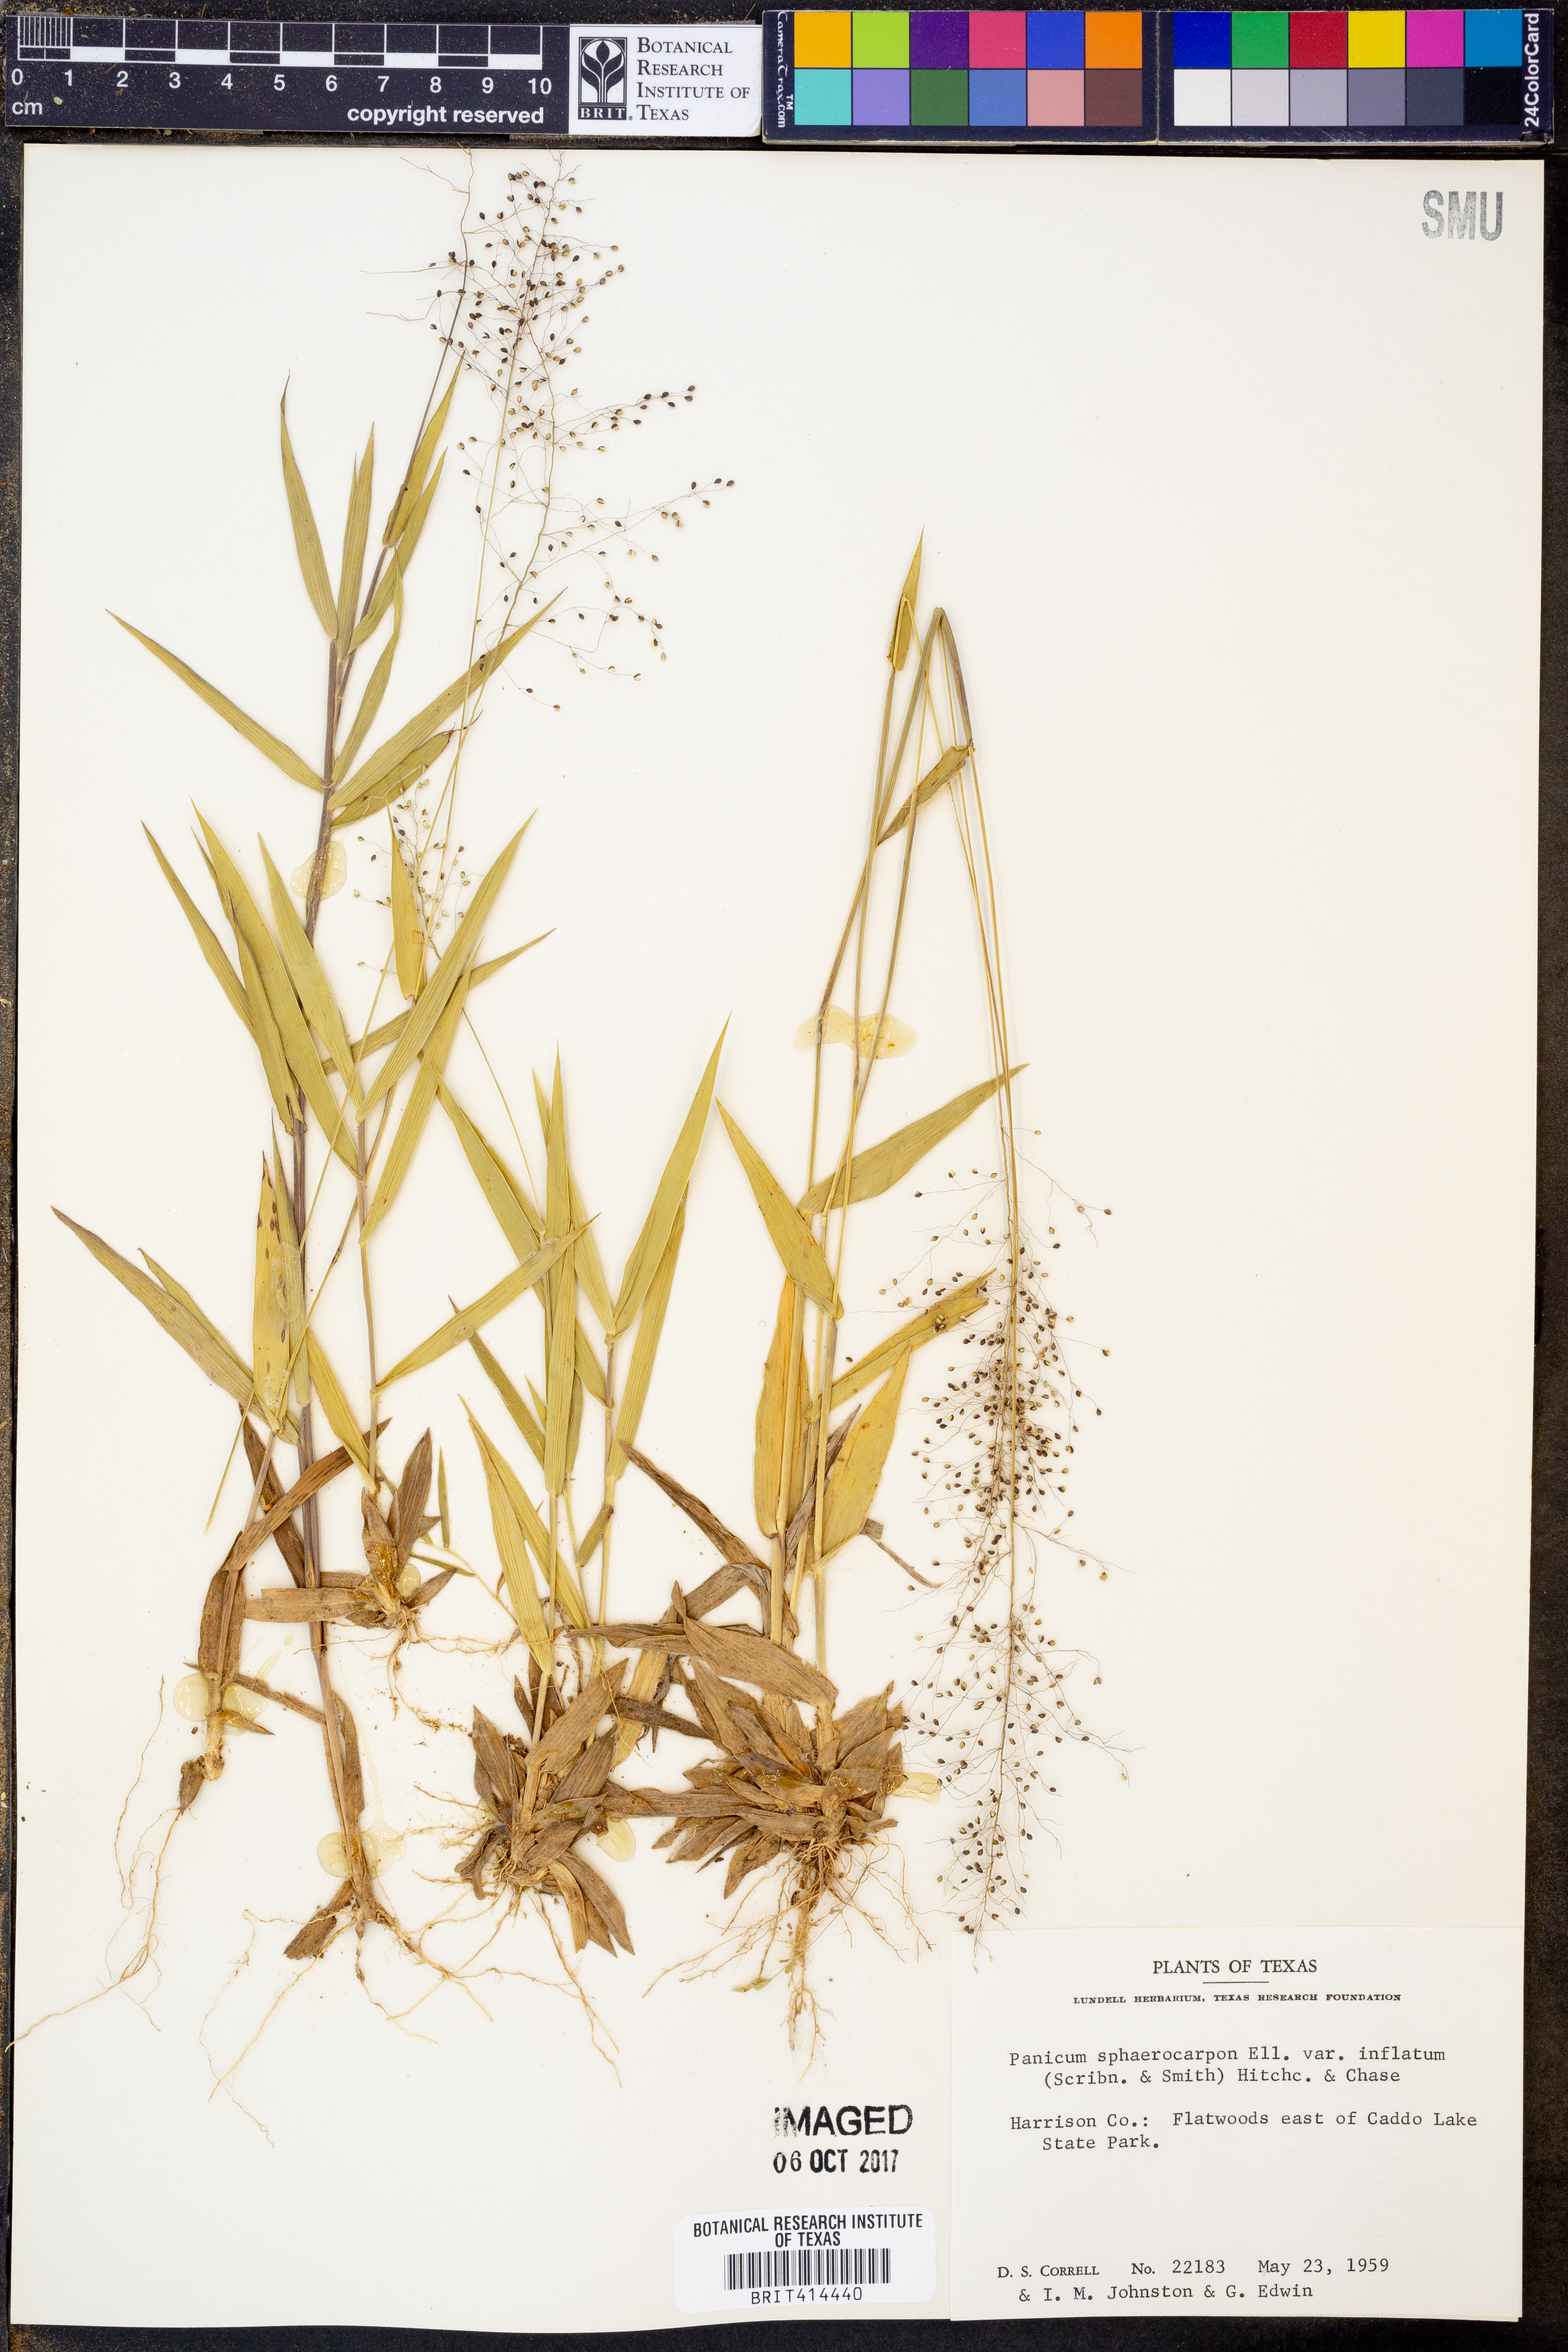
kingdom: Plantae
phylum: Tracheophyta
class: Liliopsida
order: Poales
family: Poaceae
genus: Dichanthelium
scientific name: Dichanthelium inflatum
